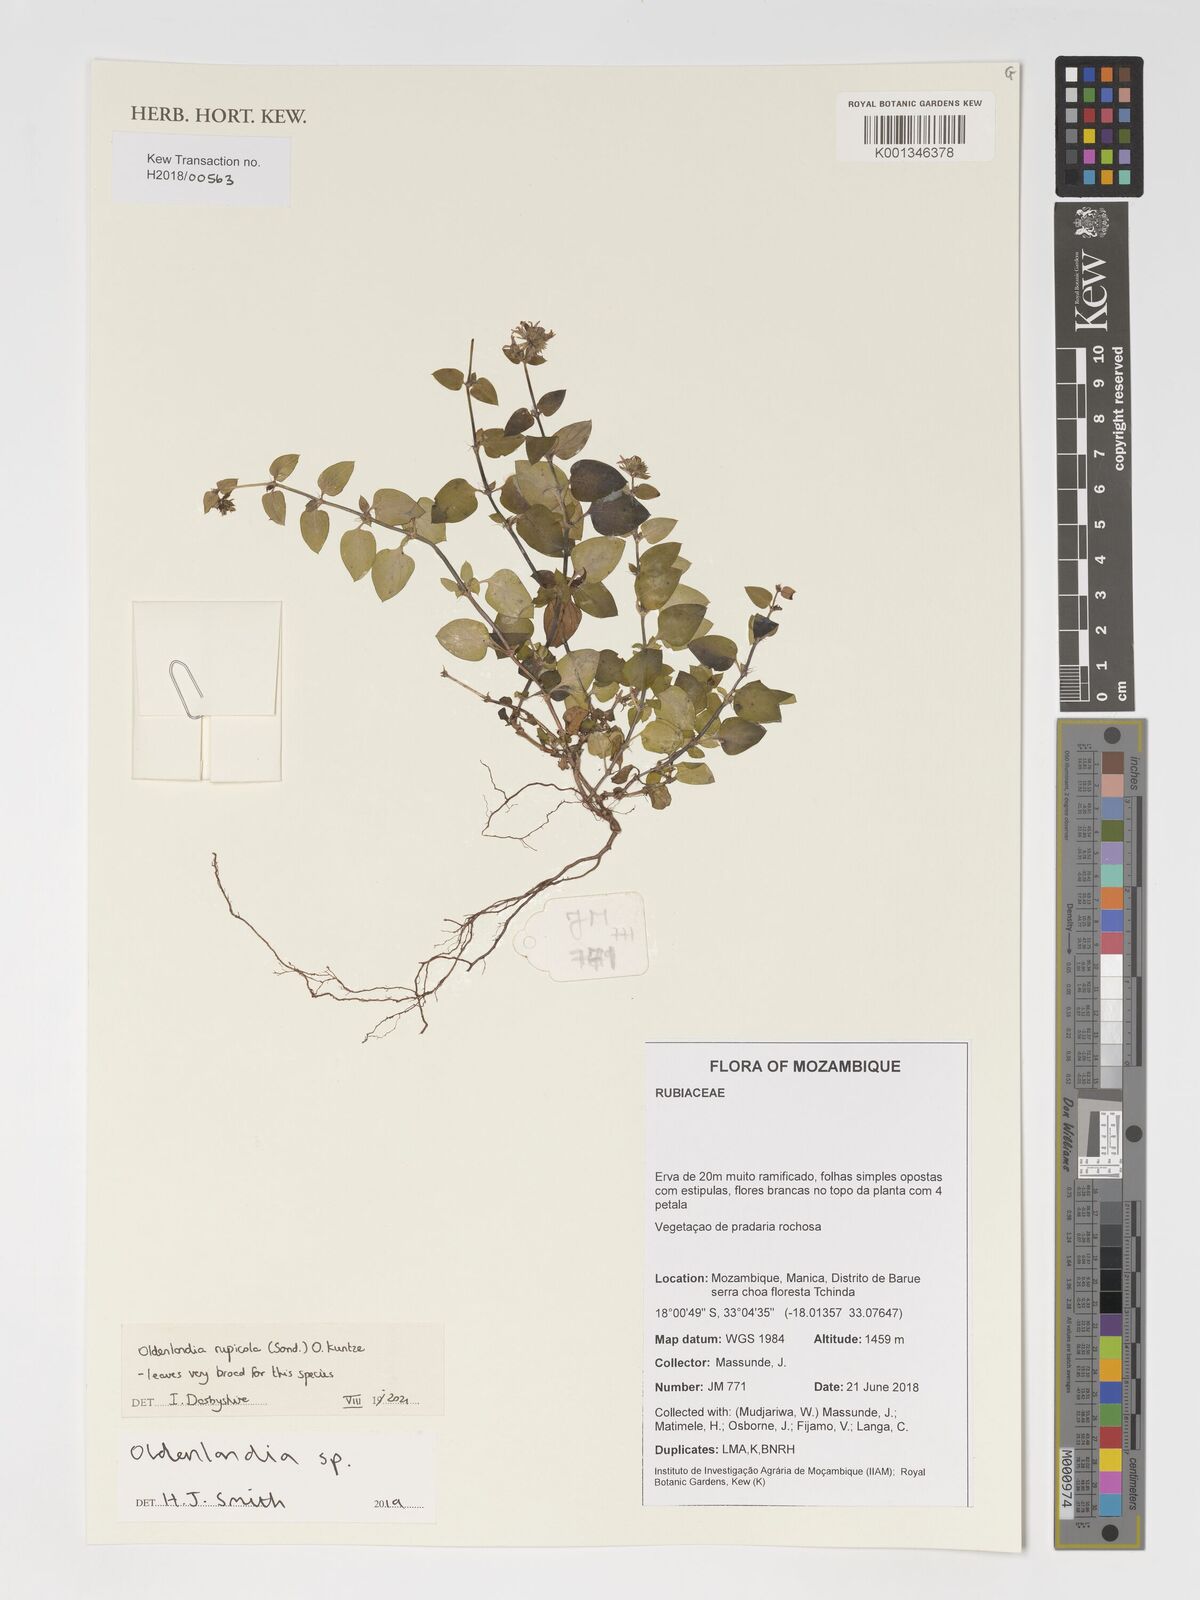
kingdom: Plantae
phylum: Tracheophyta
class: Magnoliopsida
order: Gentianales
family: Rubiaceae
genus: Oldenlandia
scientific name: Oldenlandia rupicola
